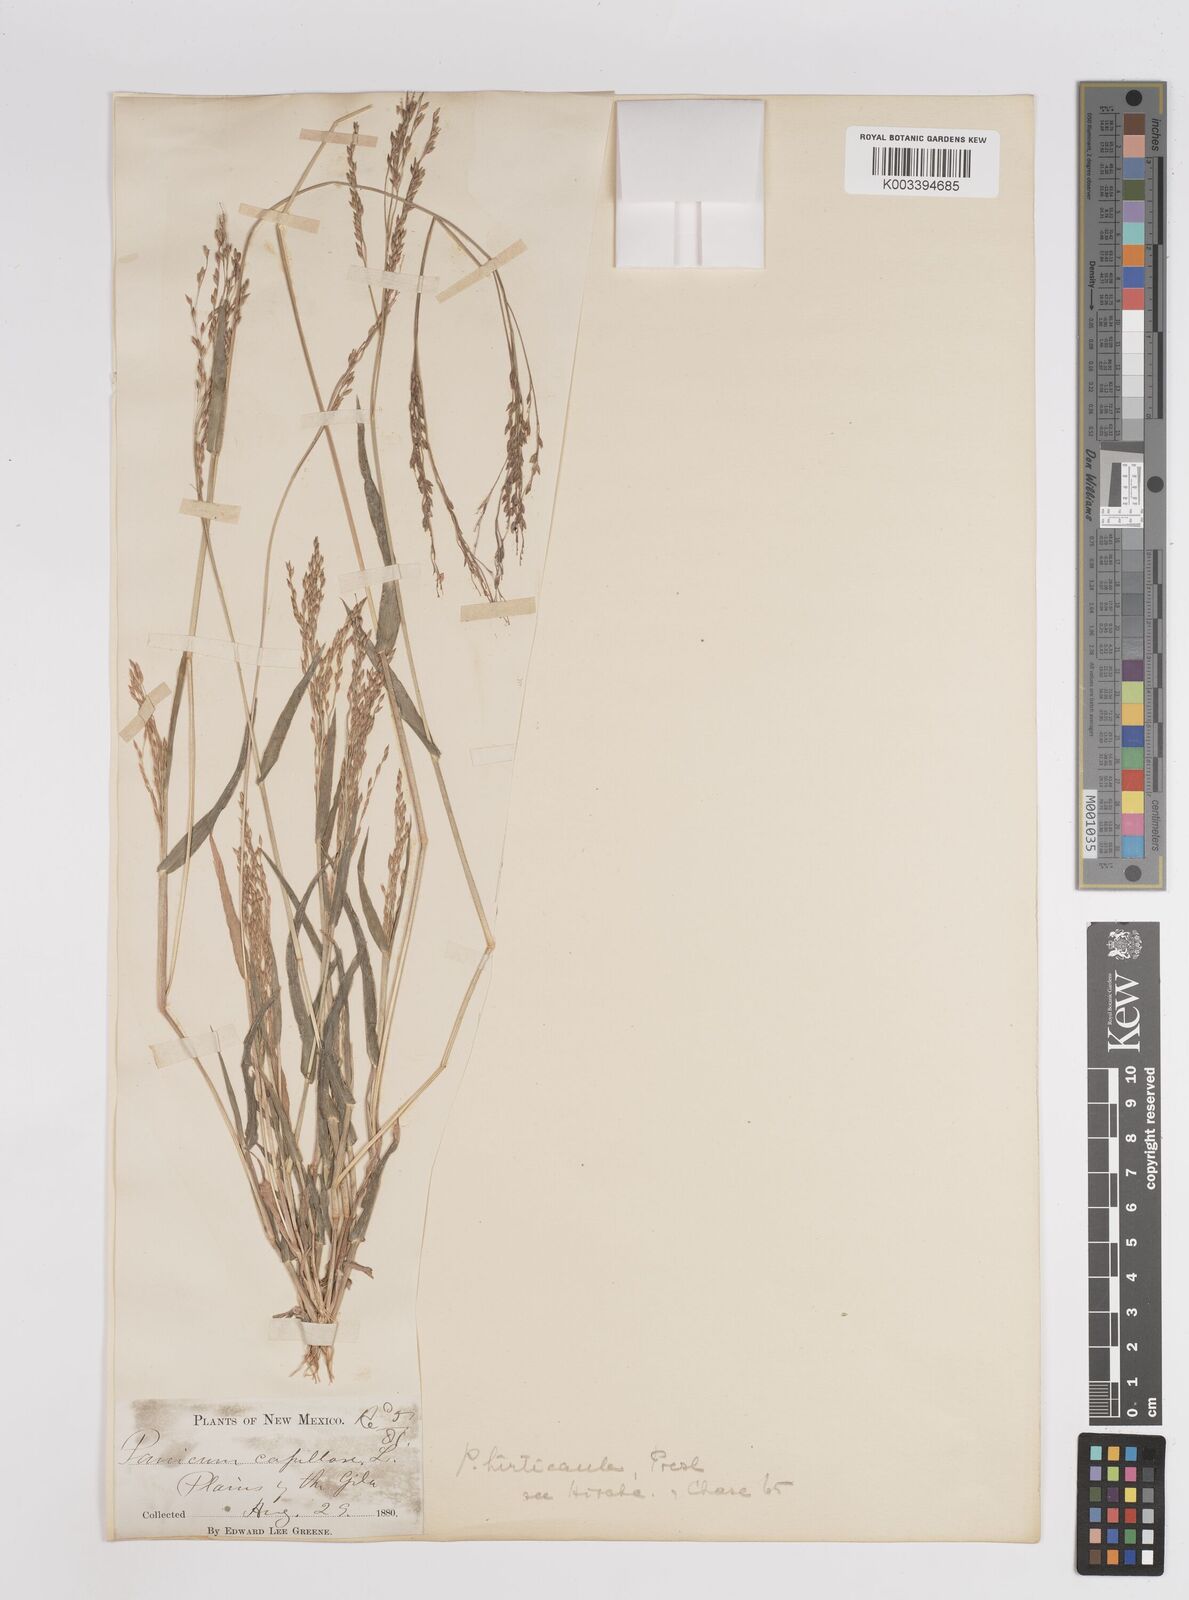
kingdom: Plantae
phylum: Tracheophyta
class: Liliopsida
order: Poales
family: Poaceae
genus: Panicum
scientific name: Panicum alatum
